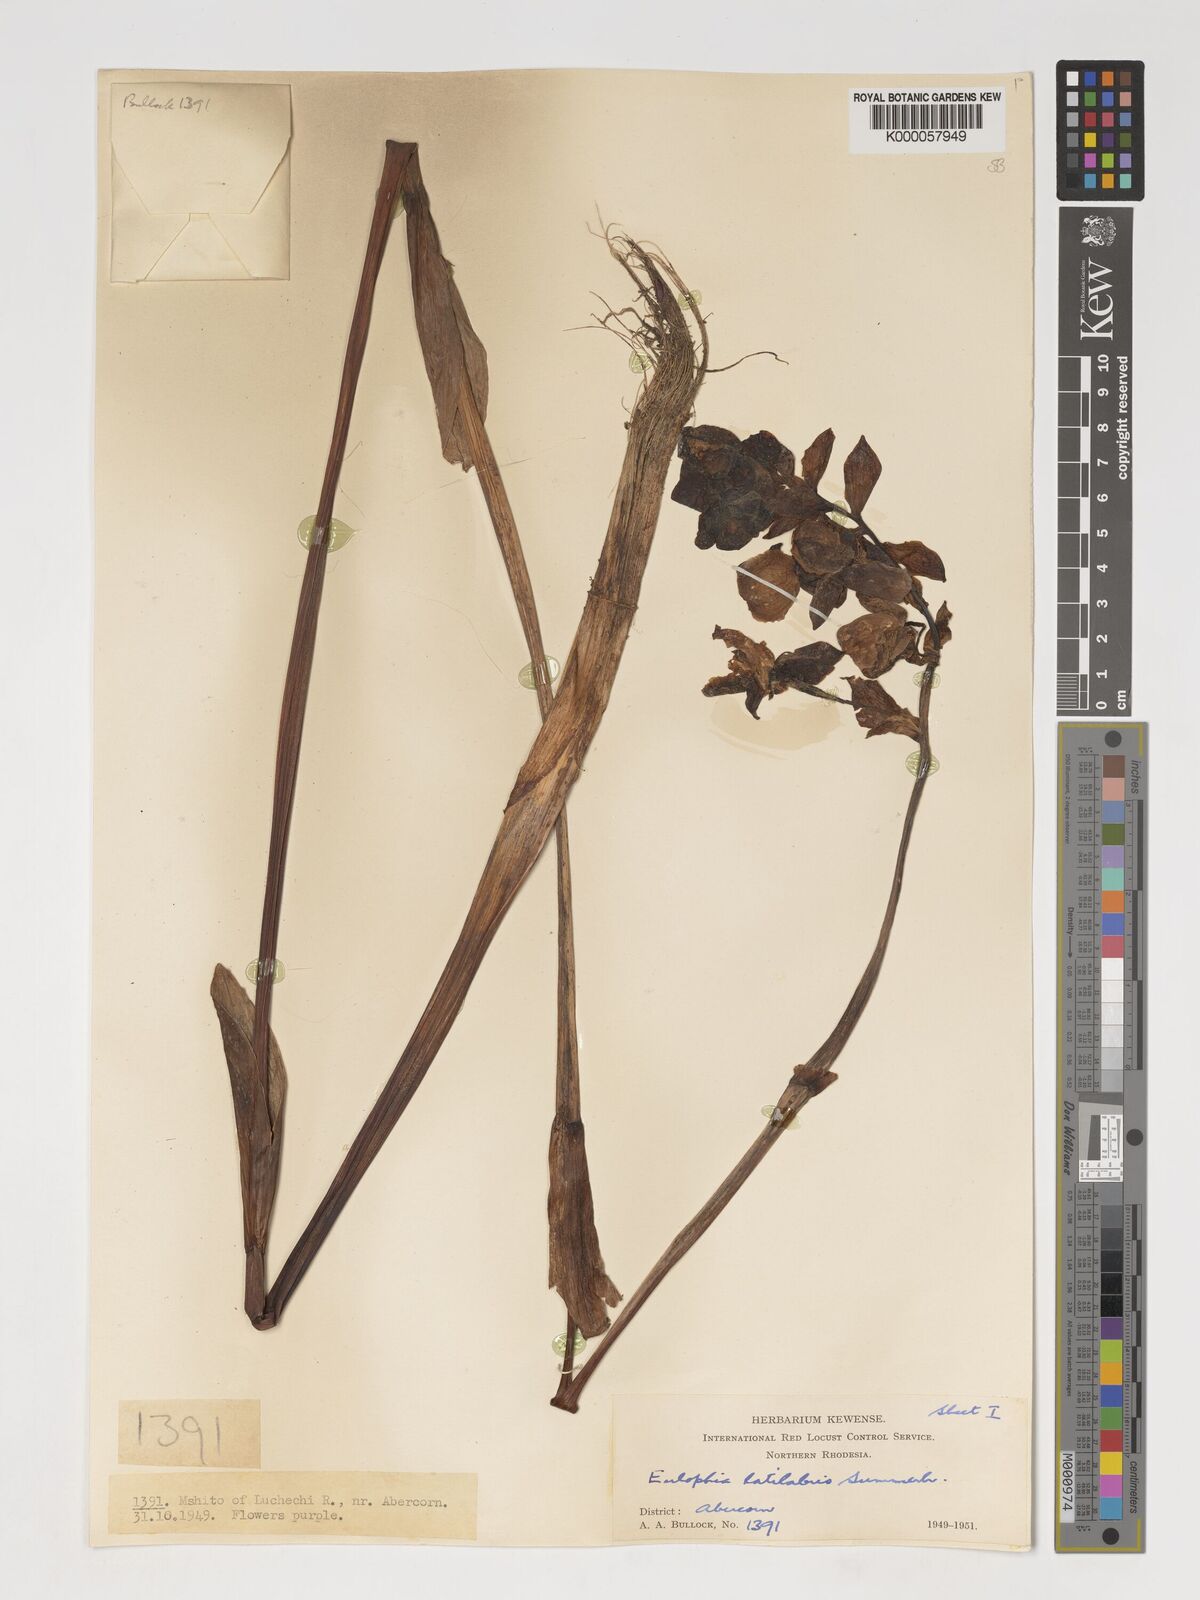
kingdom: Plantae
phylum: Tracheophyta
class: Liliopsida
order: Asparagales
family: Orchidaceae
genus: Eulophia
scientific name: Eulophia latilabris
